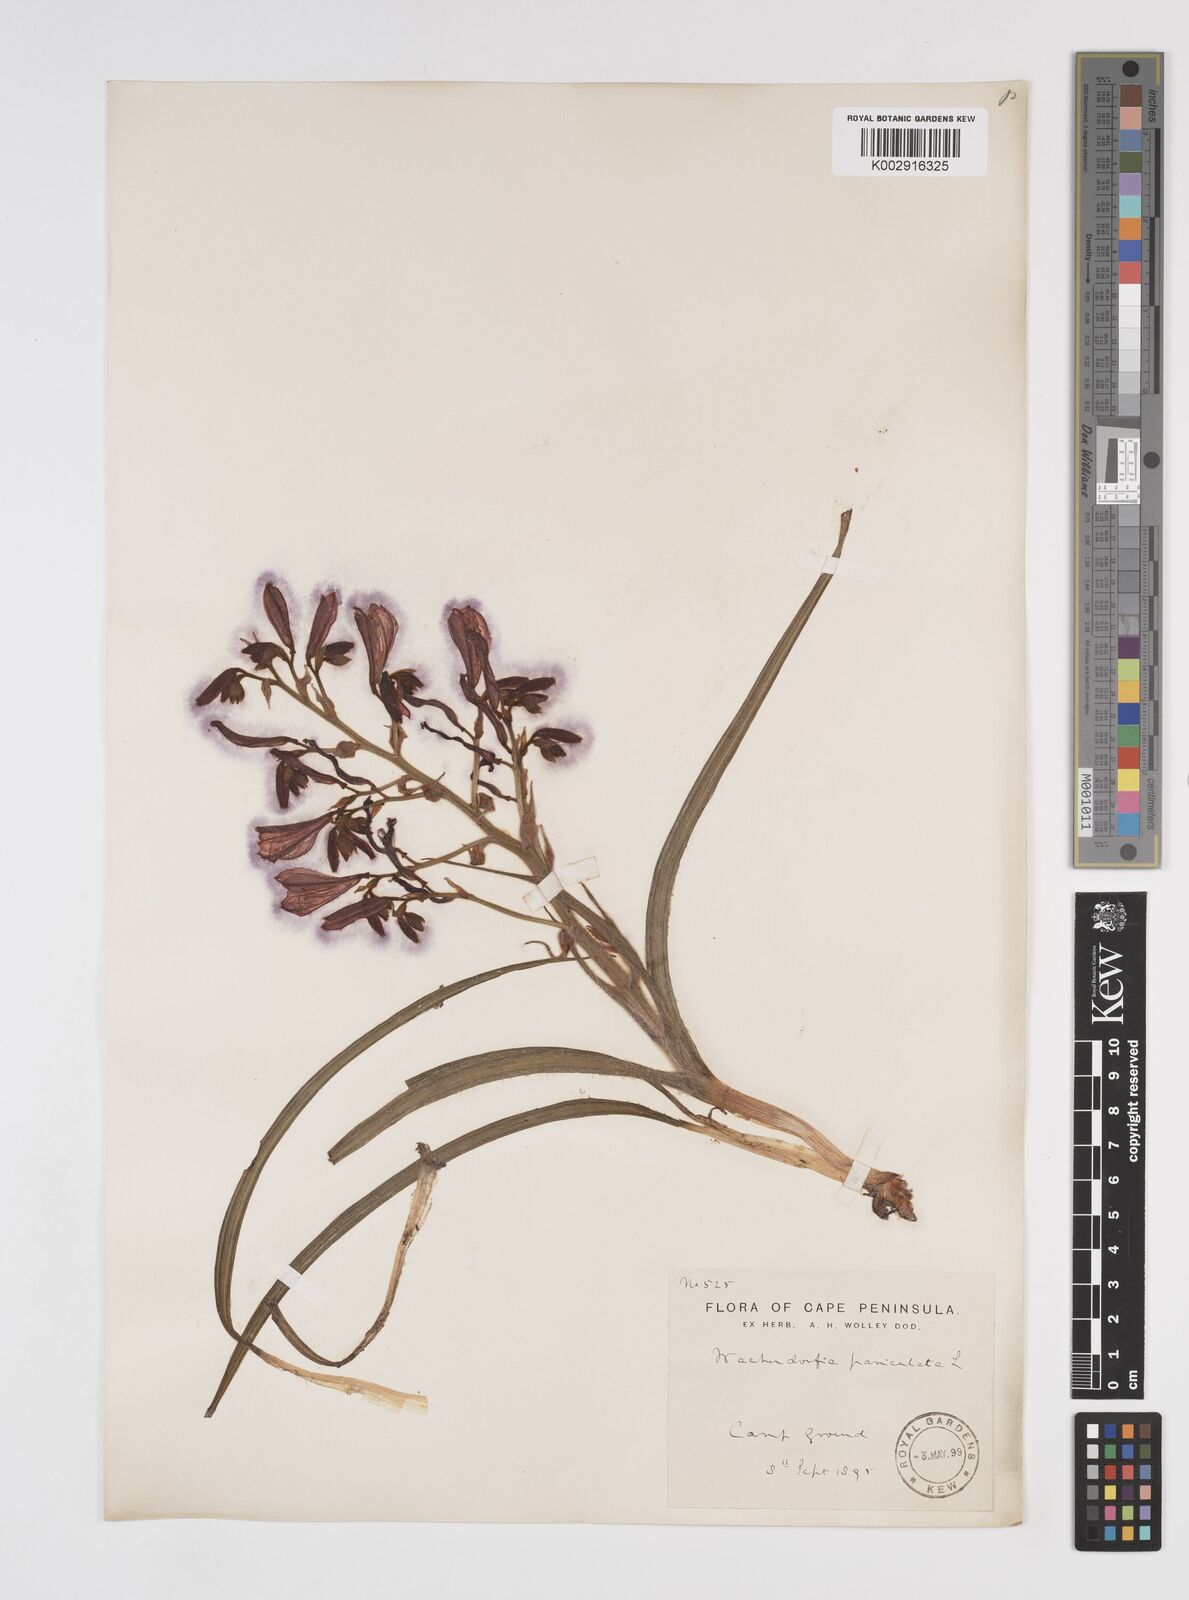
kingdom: Plantae
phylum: Tracheophyta
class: Liliopsida
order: Commelinales
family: Haemodoraceae
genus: Wachendorfia
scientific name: Wachendorfia paniculata
